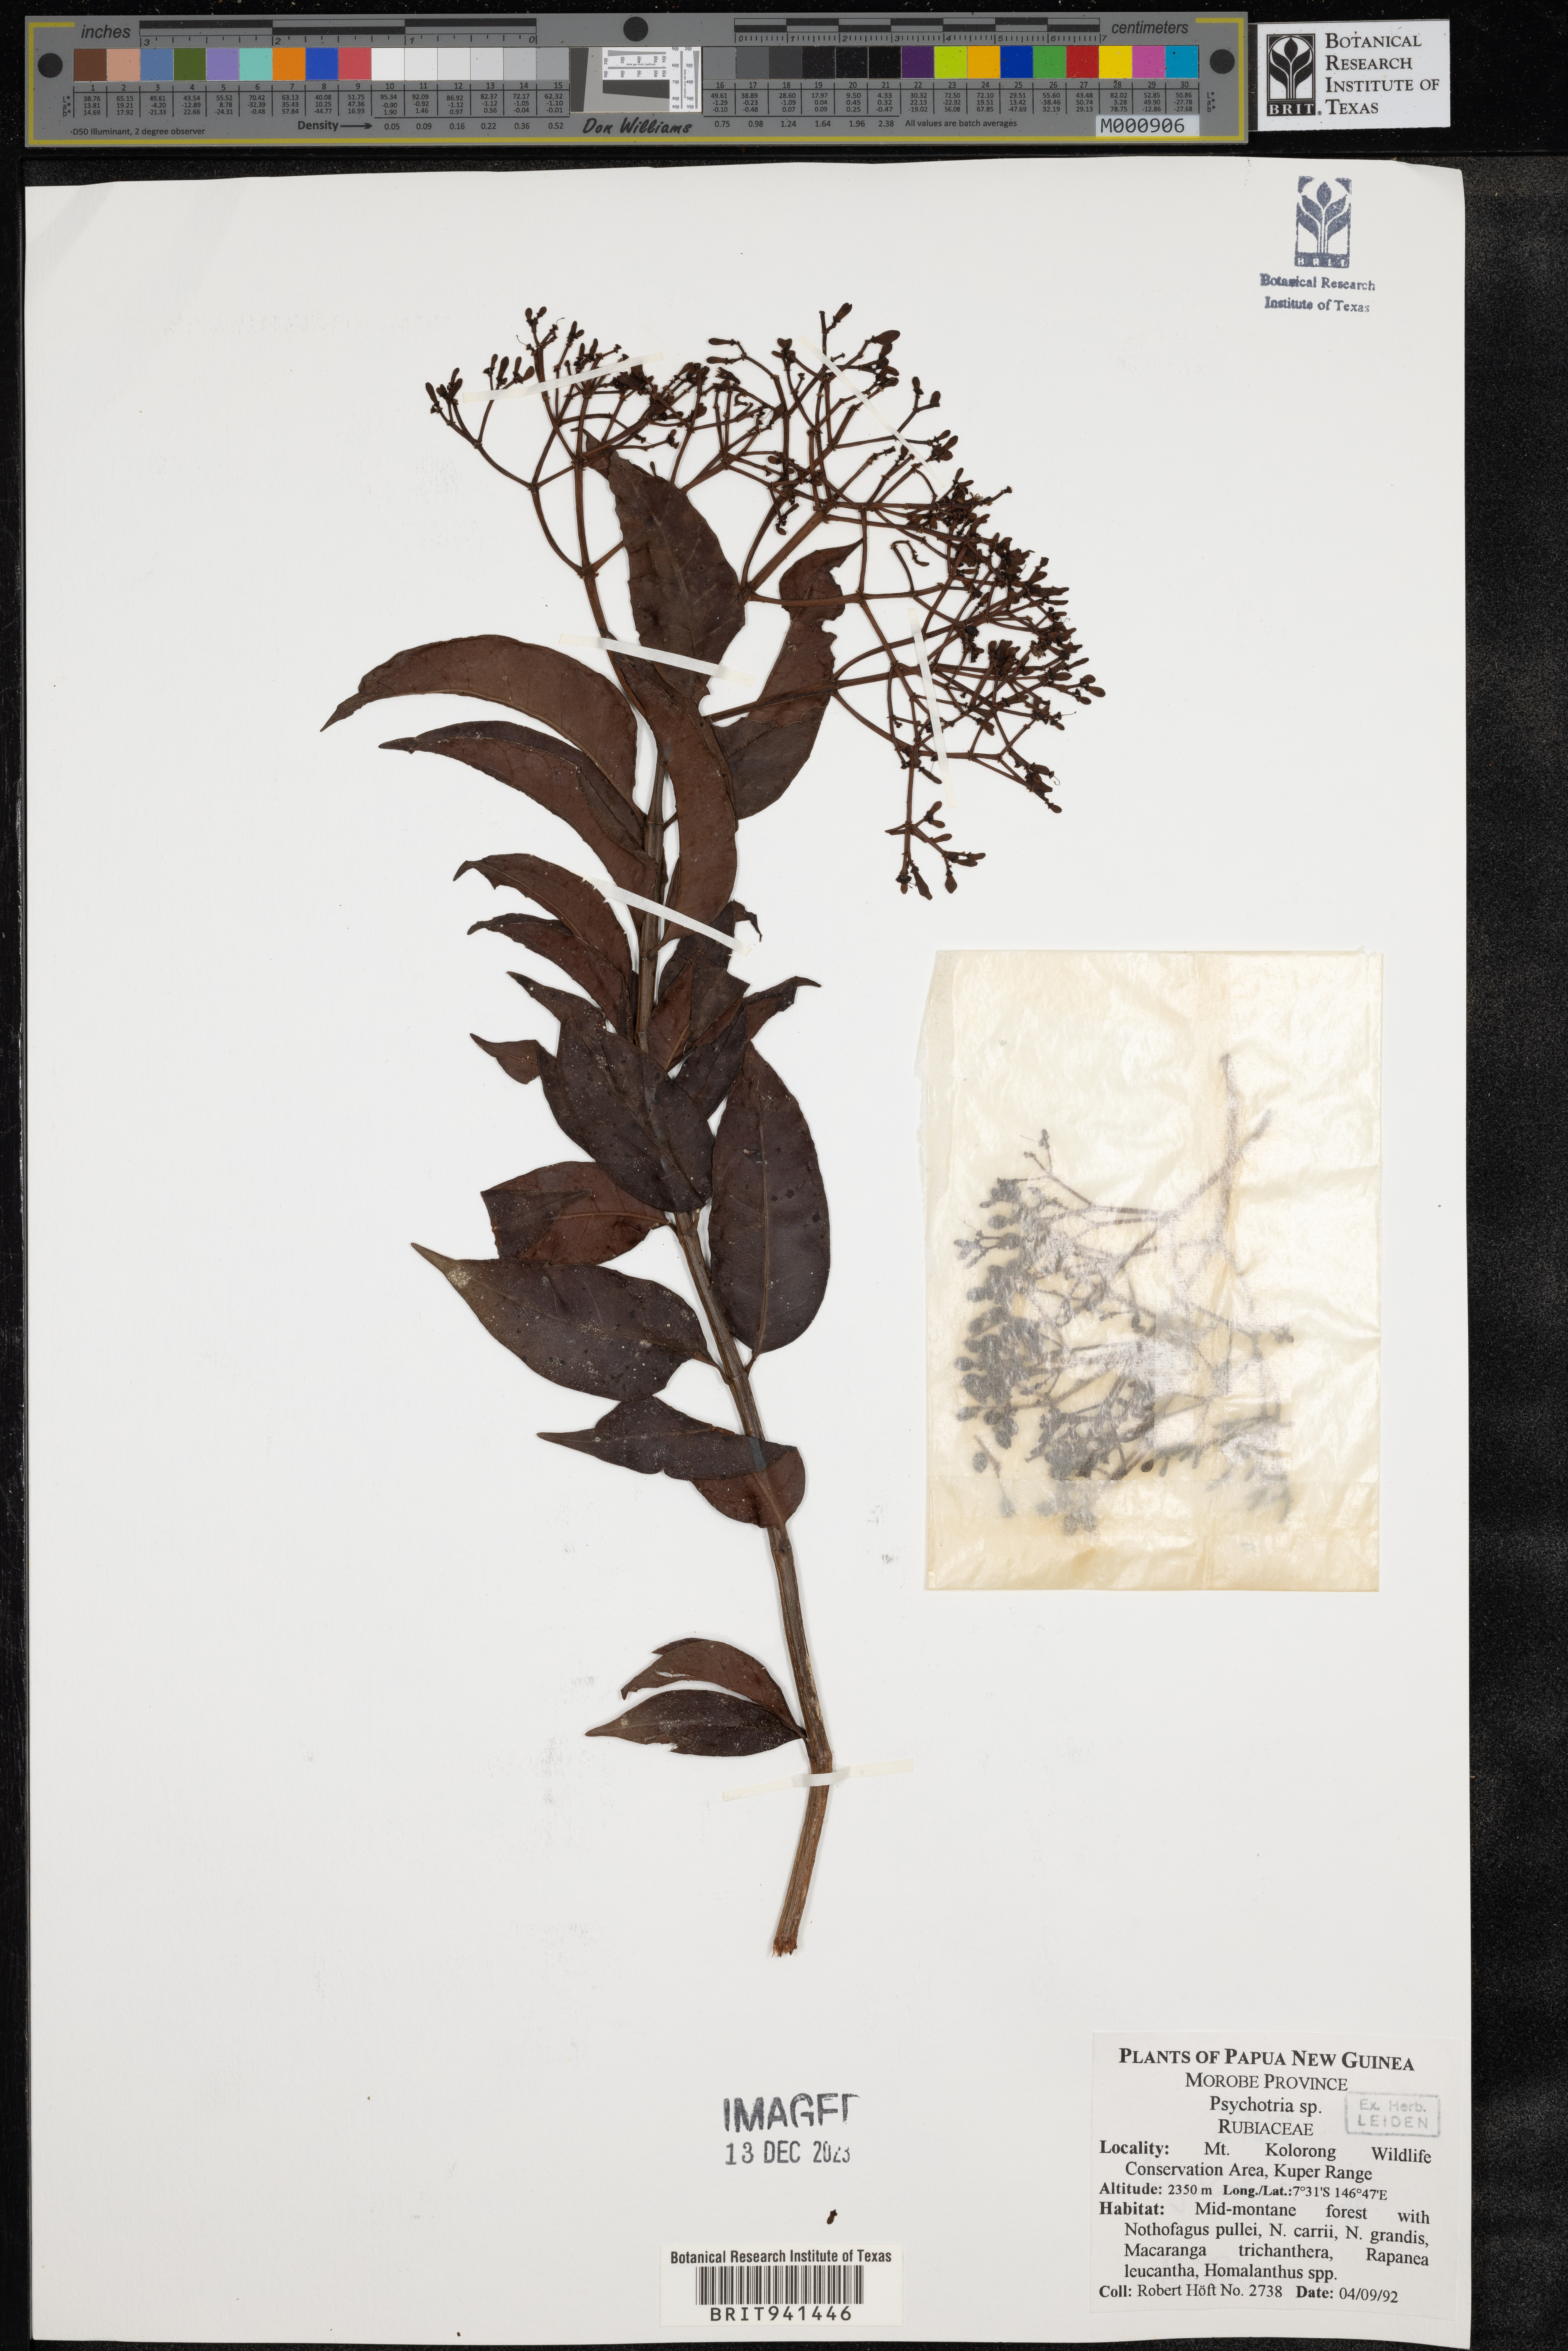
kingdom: Plantae
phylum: Tracheophyta
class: Magnoliopsida
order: Gentianales
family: Rubiaceae
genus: Psychotria
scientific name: Psychotria
